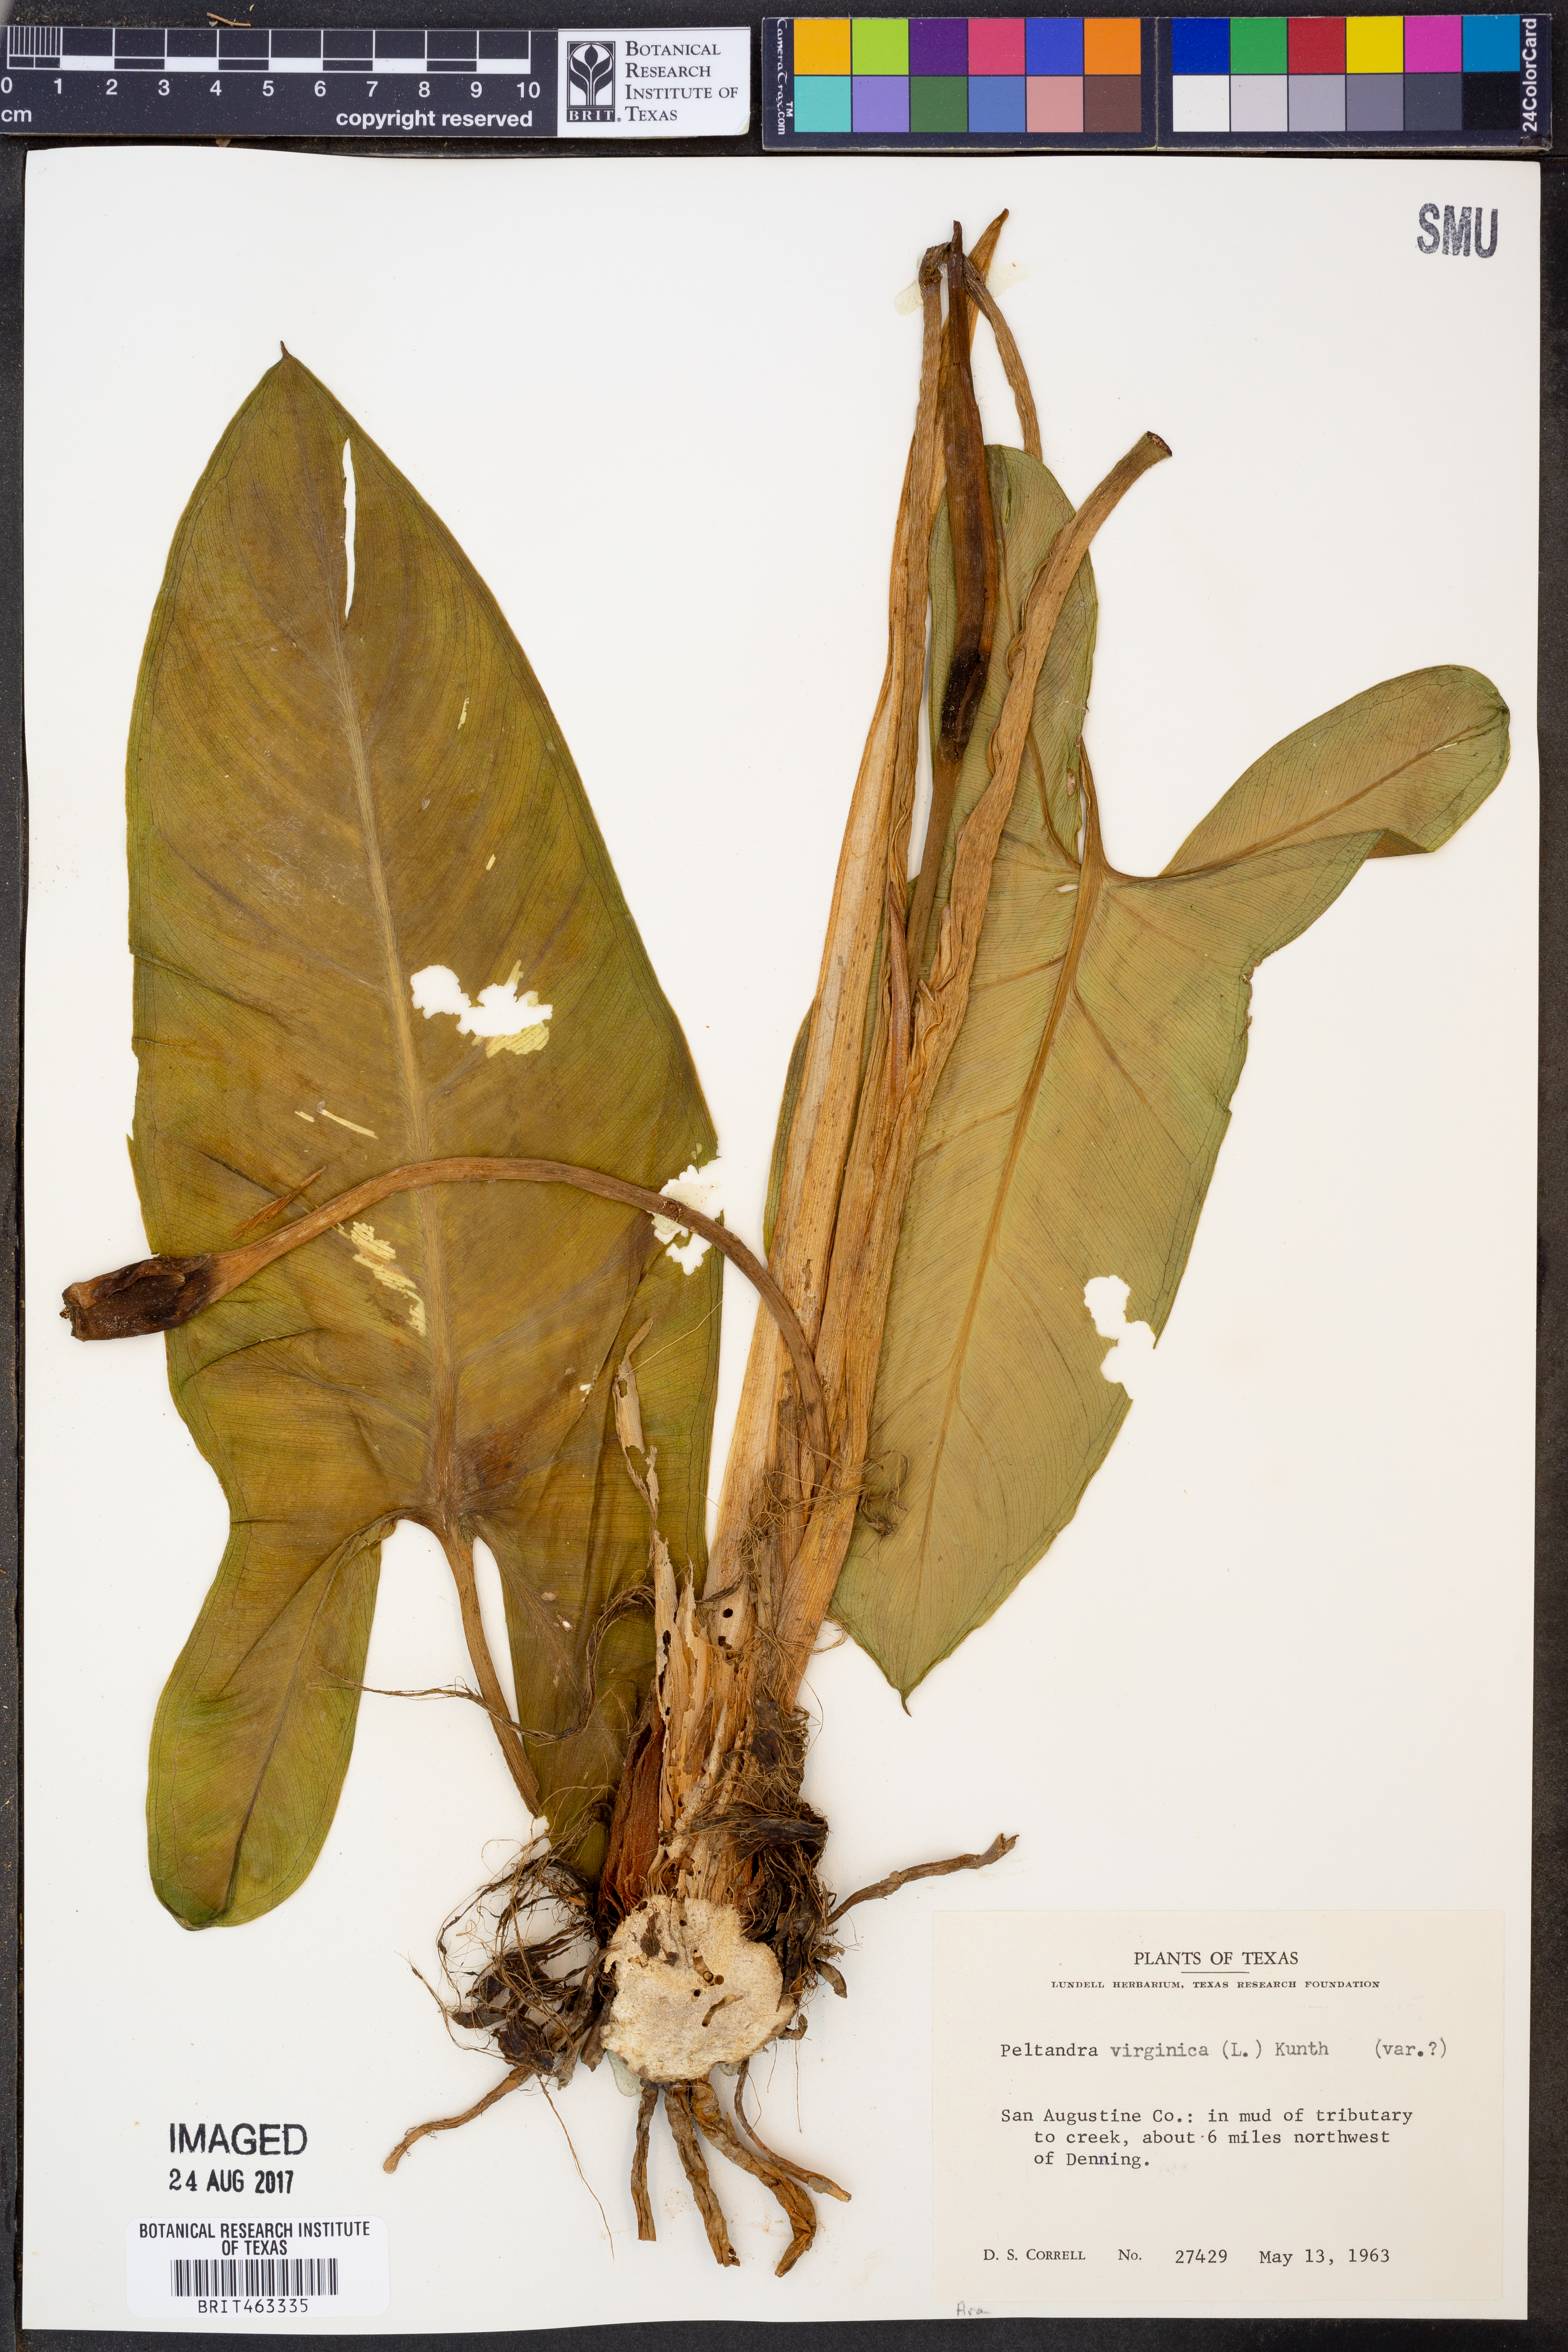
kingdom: Plantae
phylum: Tracheophyta
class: Liliopsida
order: Alismatales
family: Araceae
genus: Peltandra
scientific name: Peltandra virginica
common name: Arrow arum
